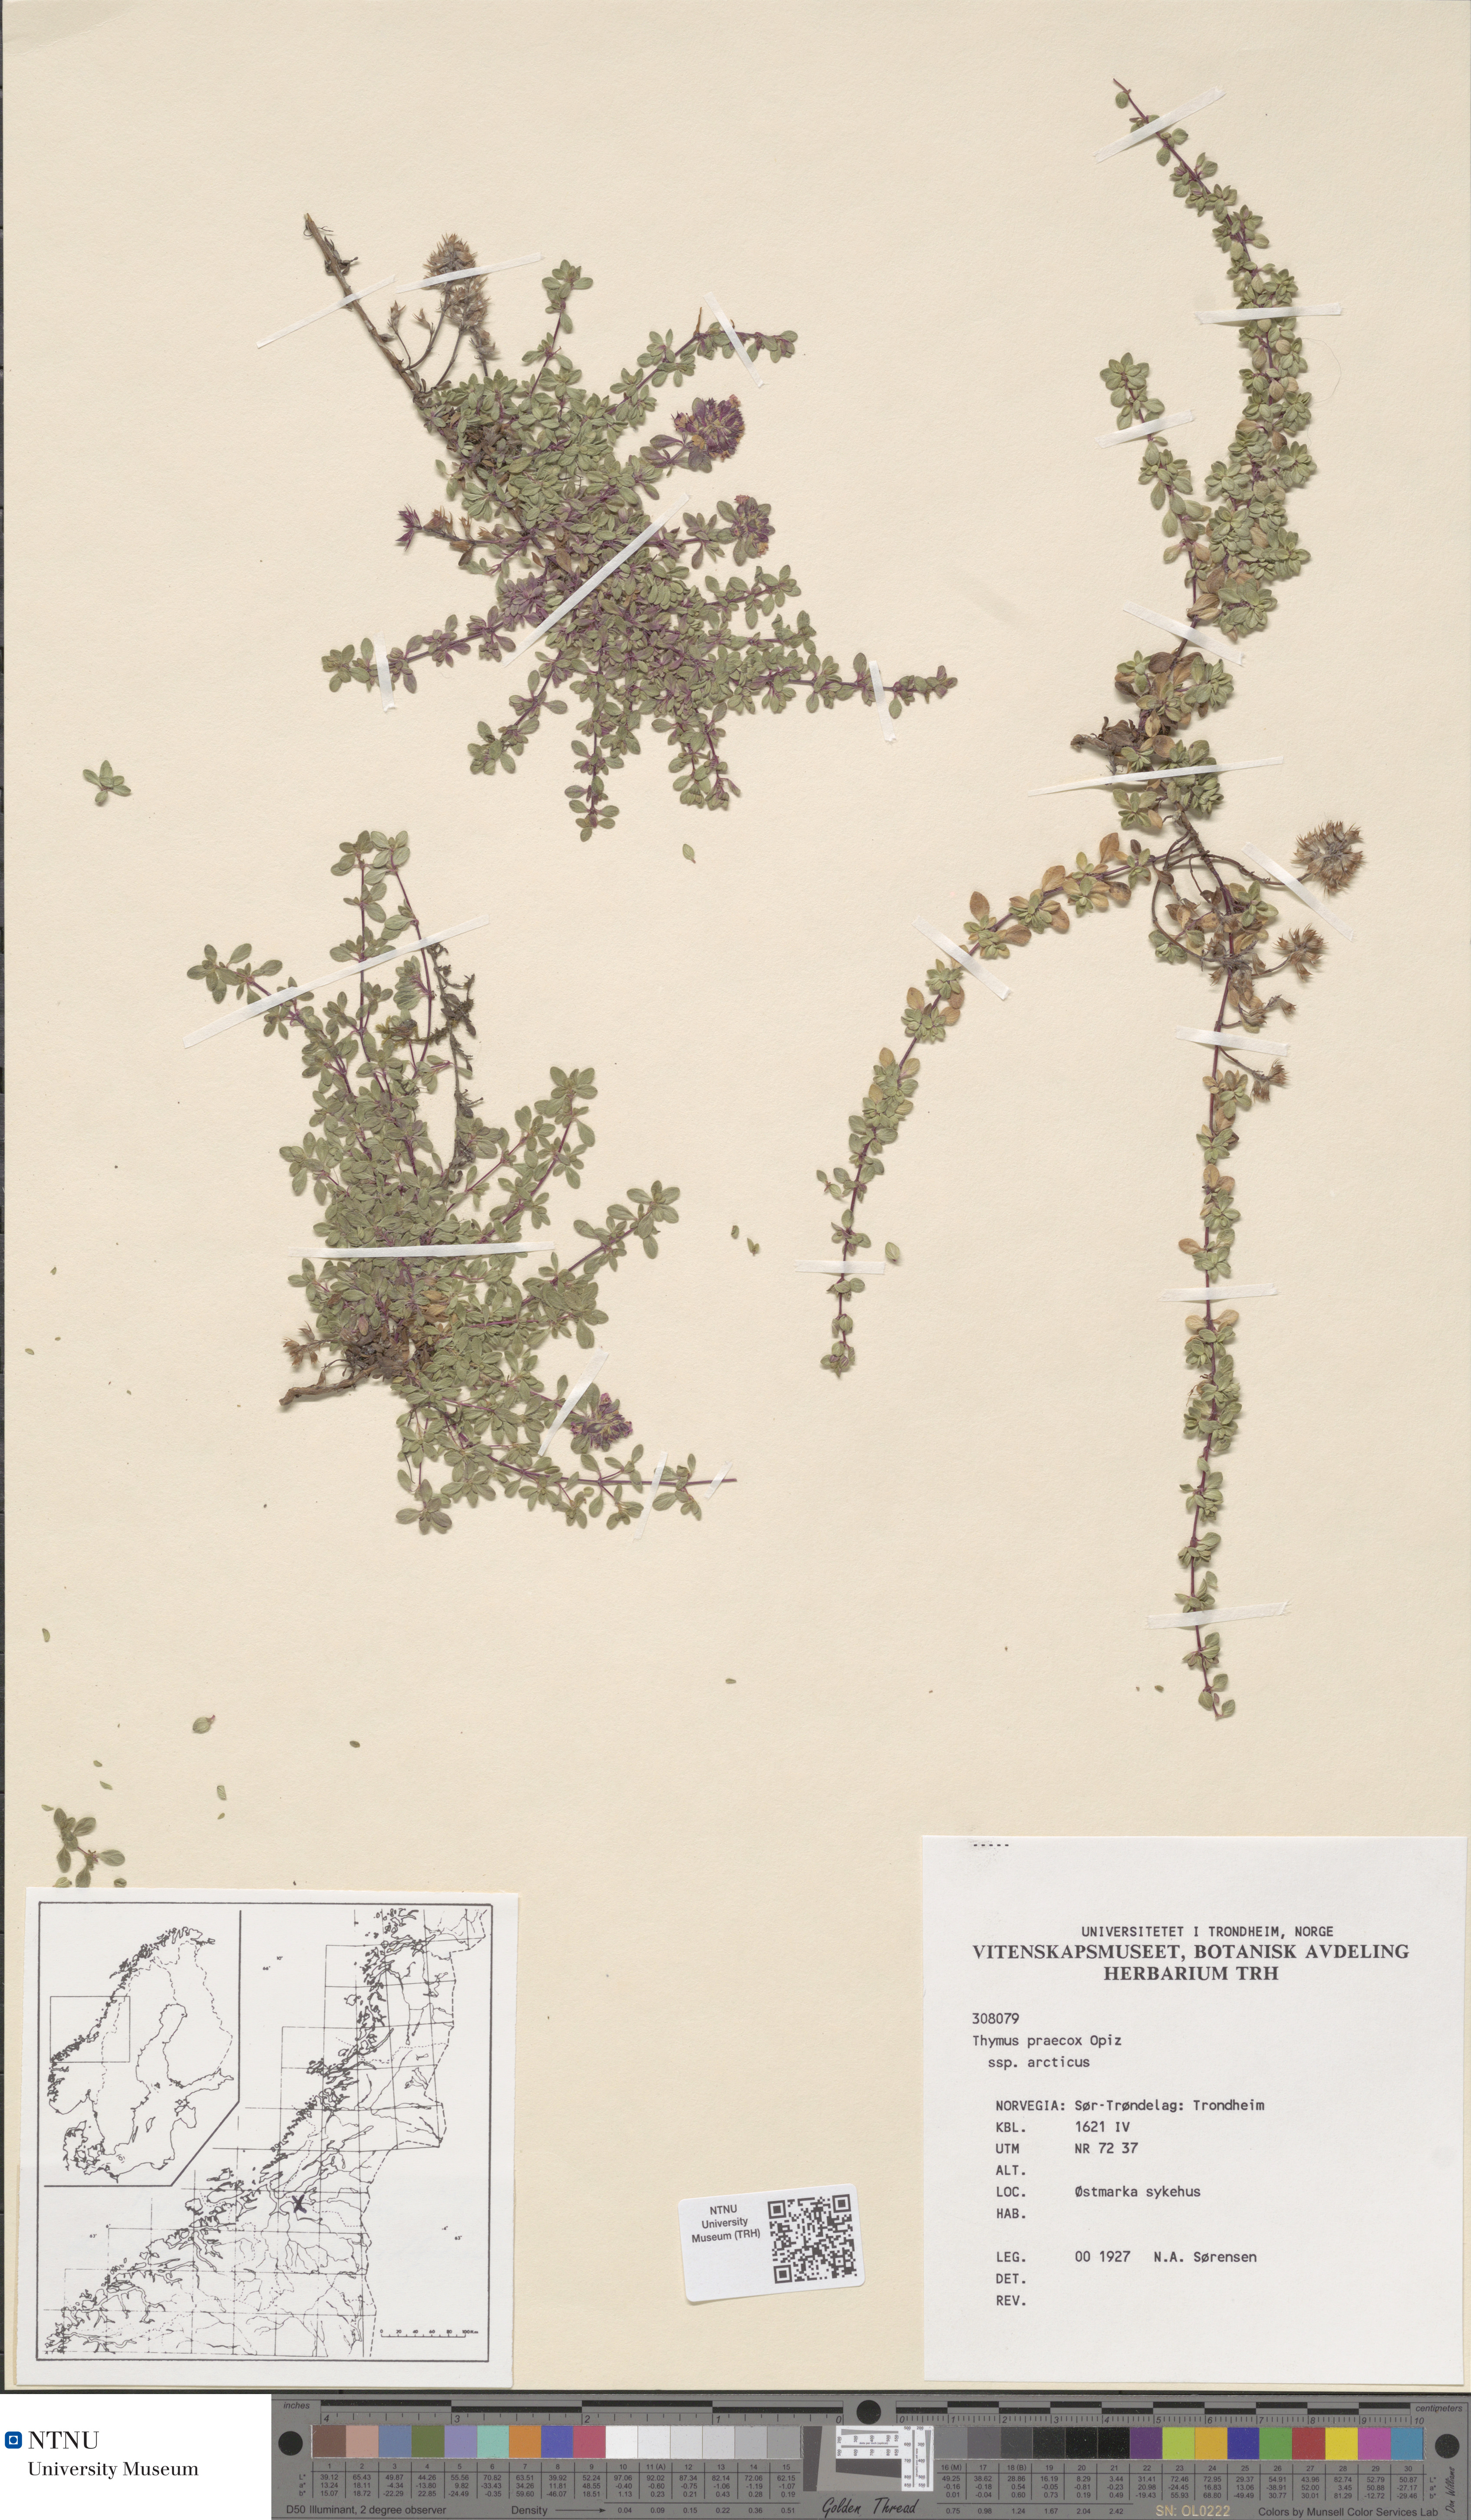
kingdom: Plantae
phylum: Tracheophyta
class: Magnoliopsida
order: Lamiales
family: Lamiaceae
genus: Thymus
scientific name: Thymus praecox
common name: Wild thyme
